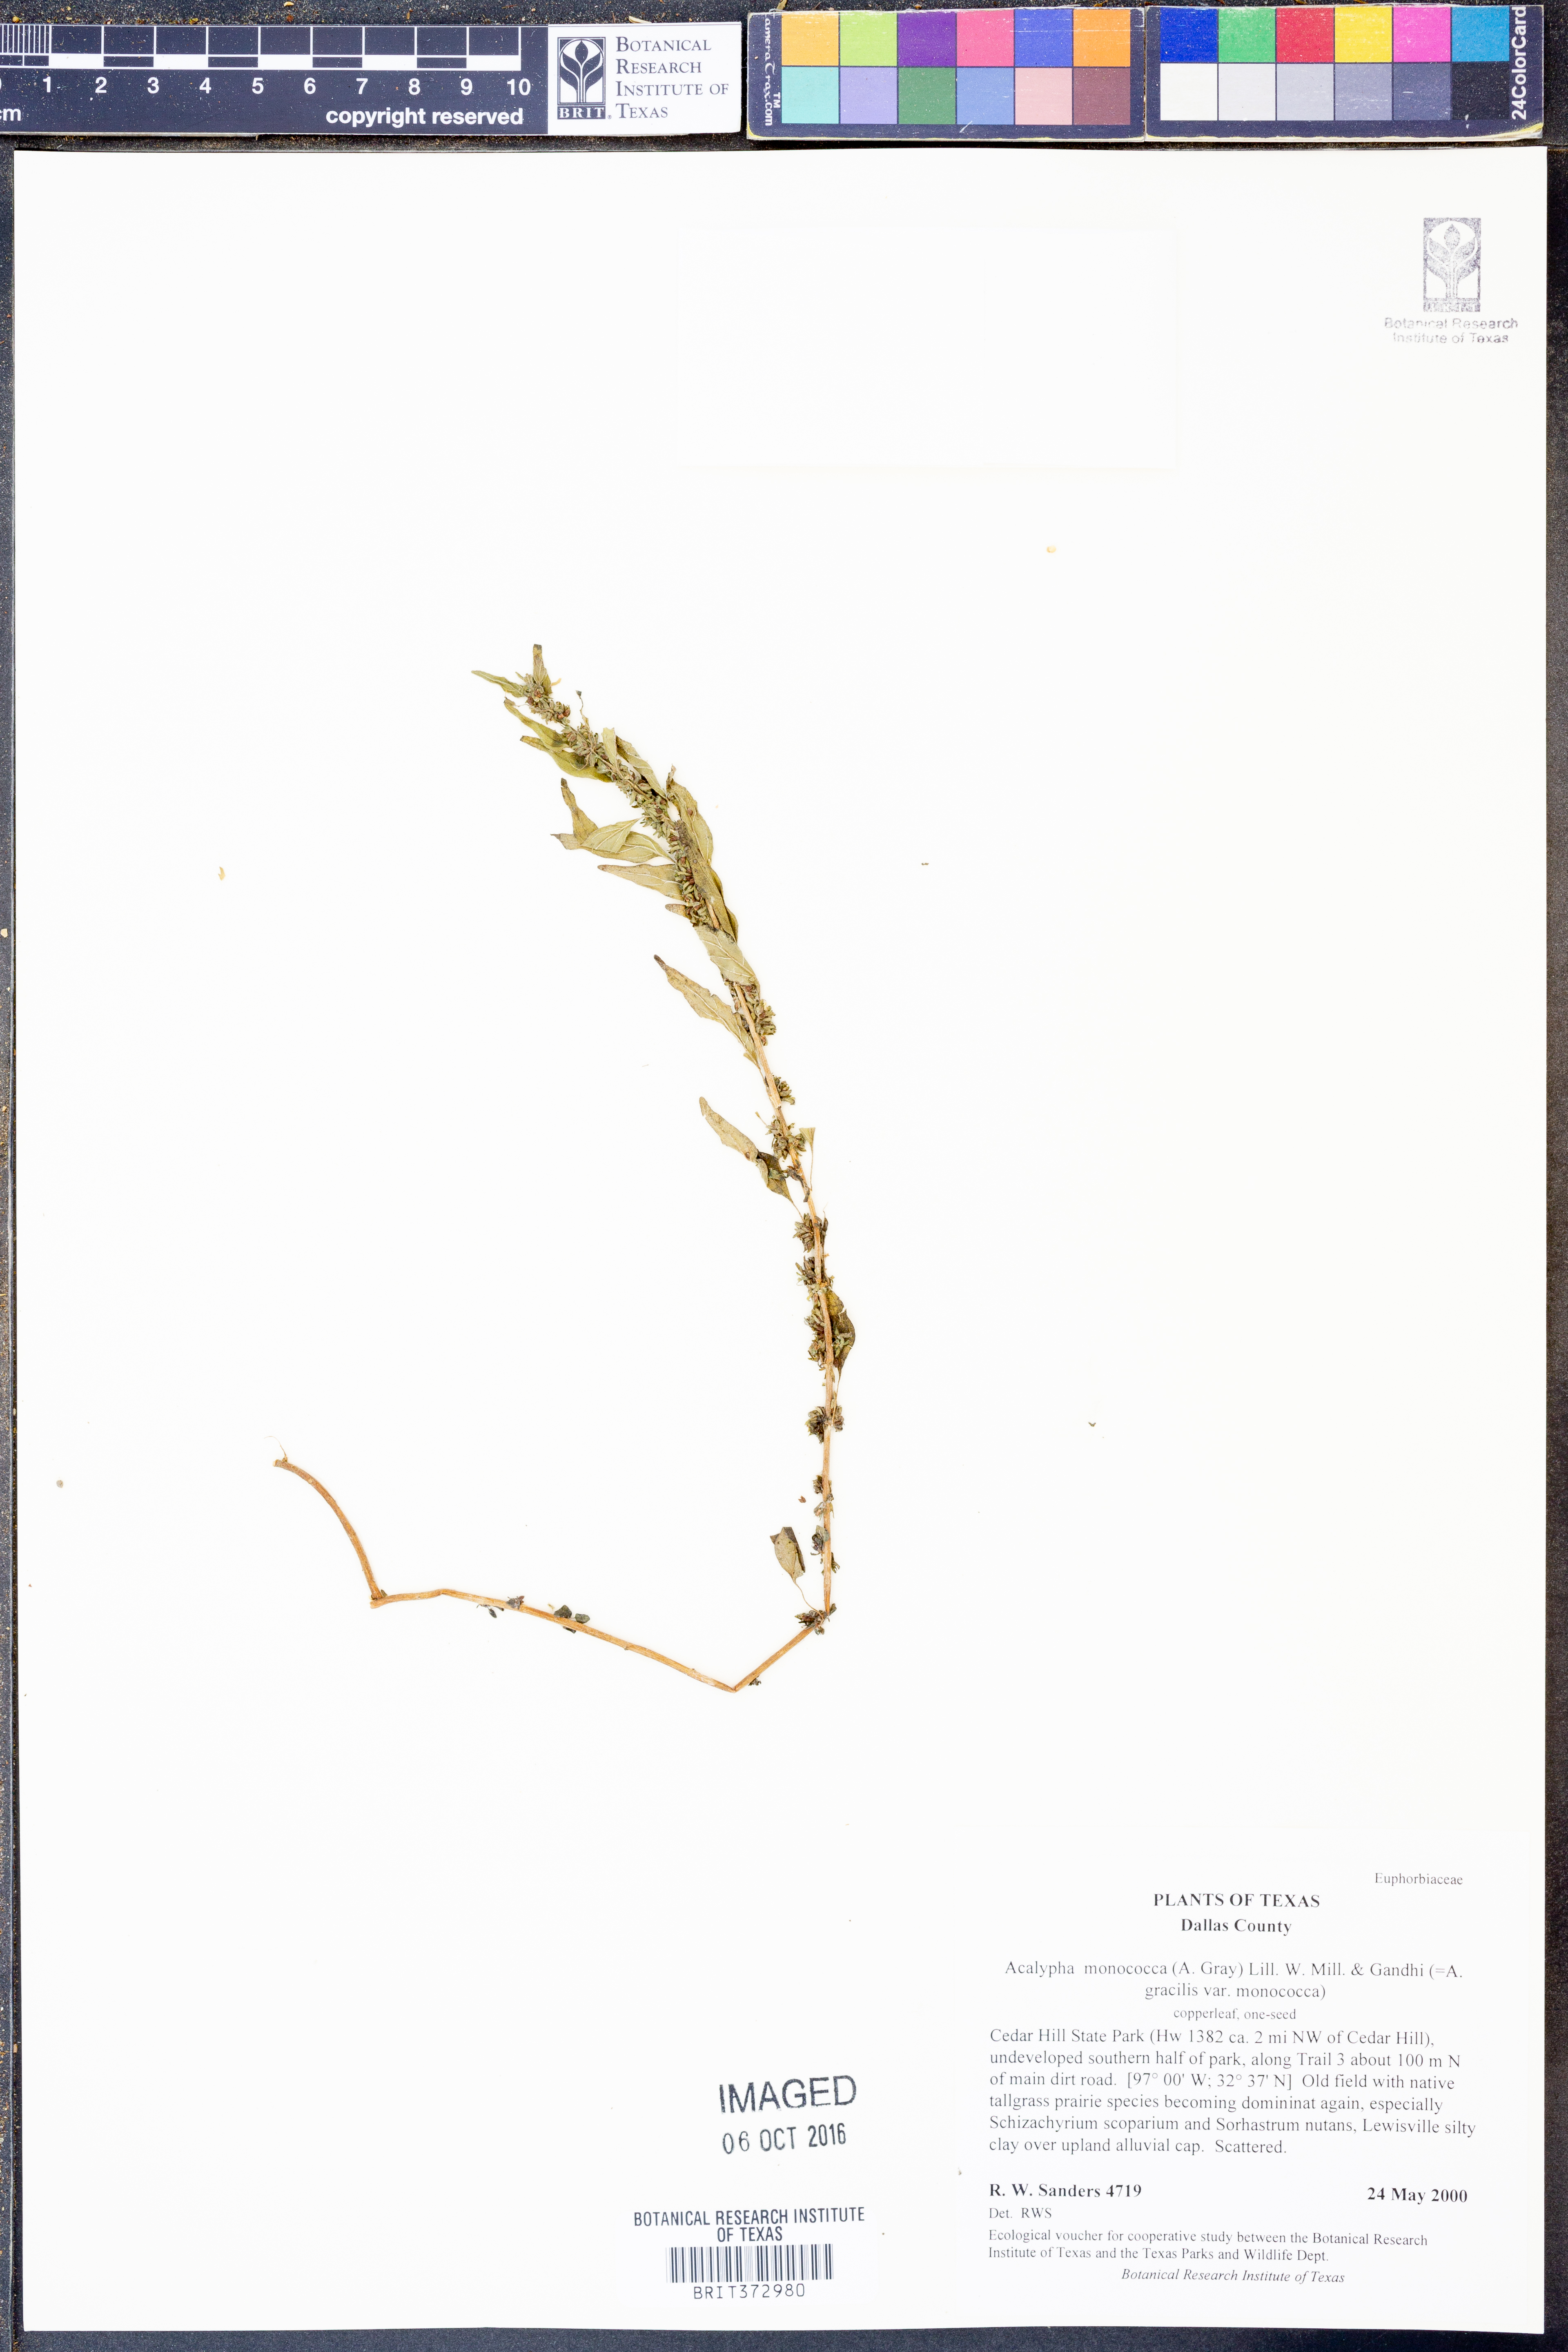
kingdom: Plantae
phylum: Tracheophyta
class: Magnoliopsida
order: Malpighiales
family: Euphorbiaceae
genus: Acalypha
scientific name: Acalypha monococca
